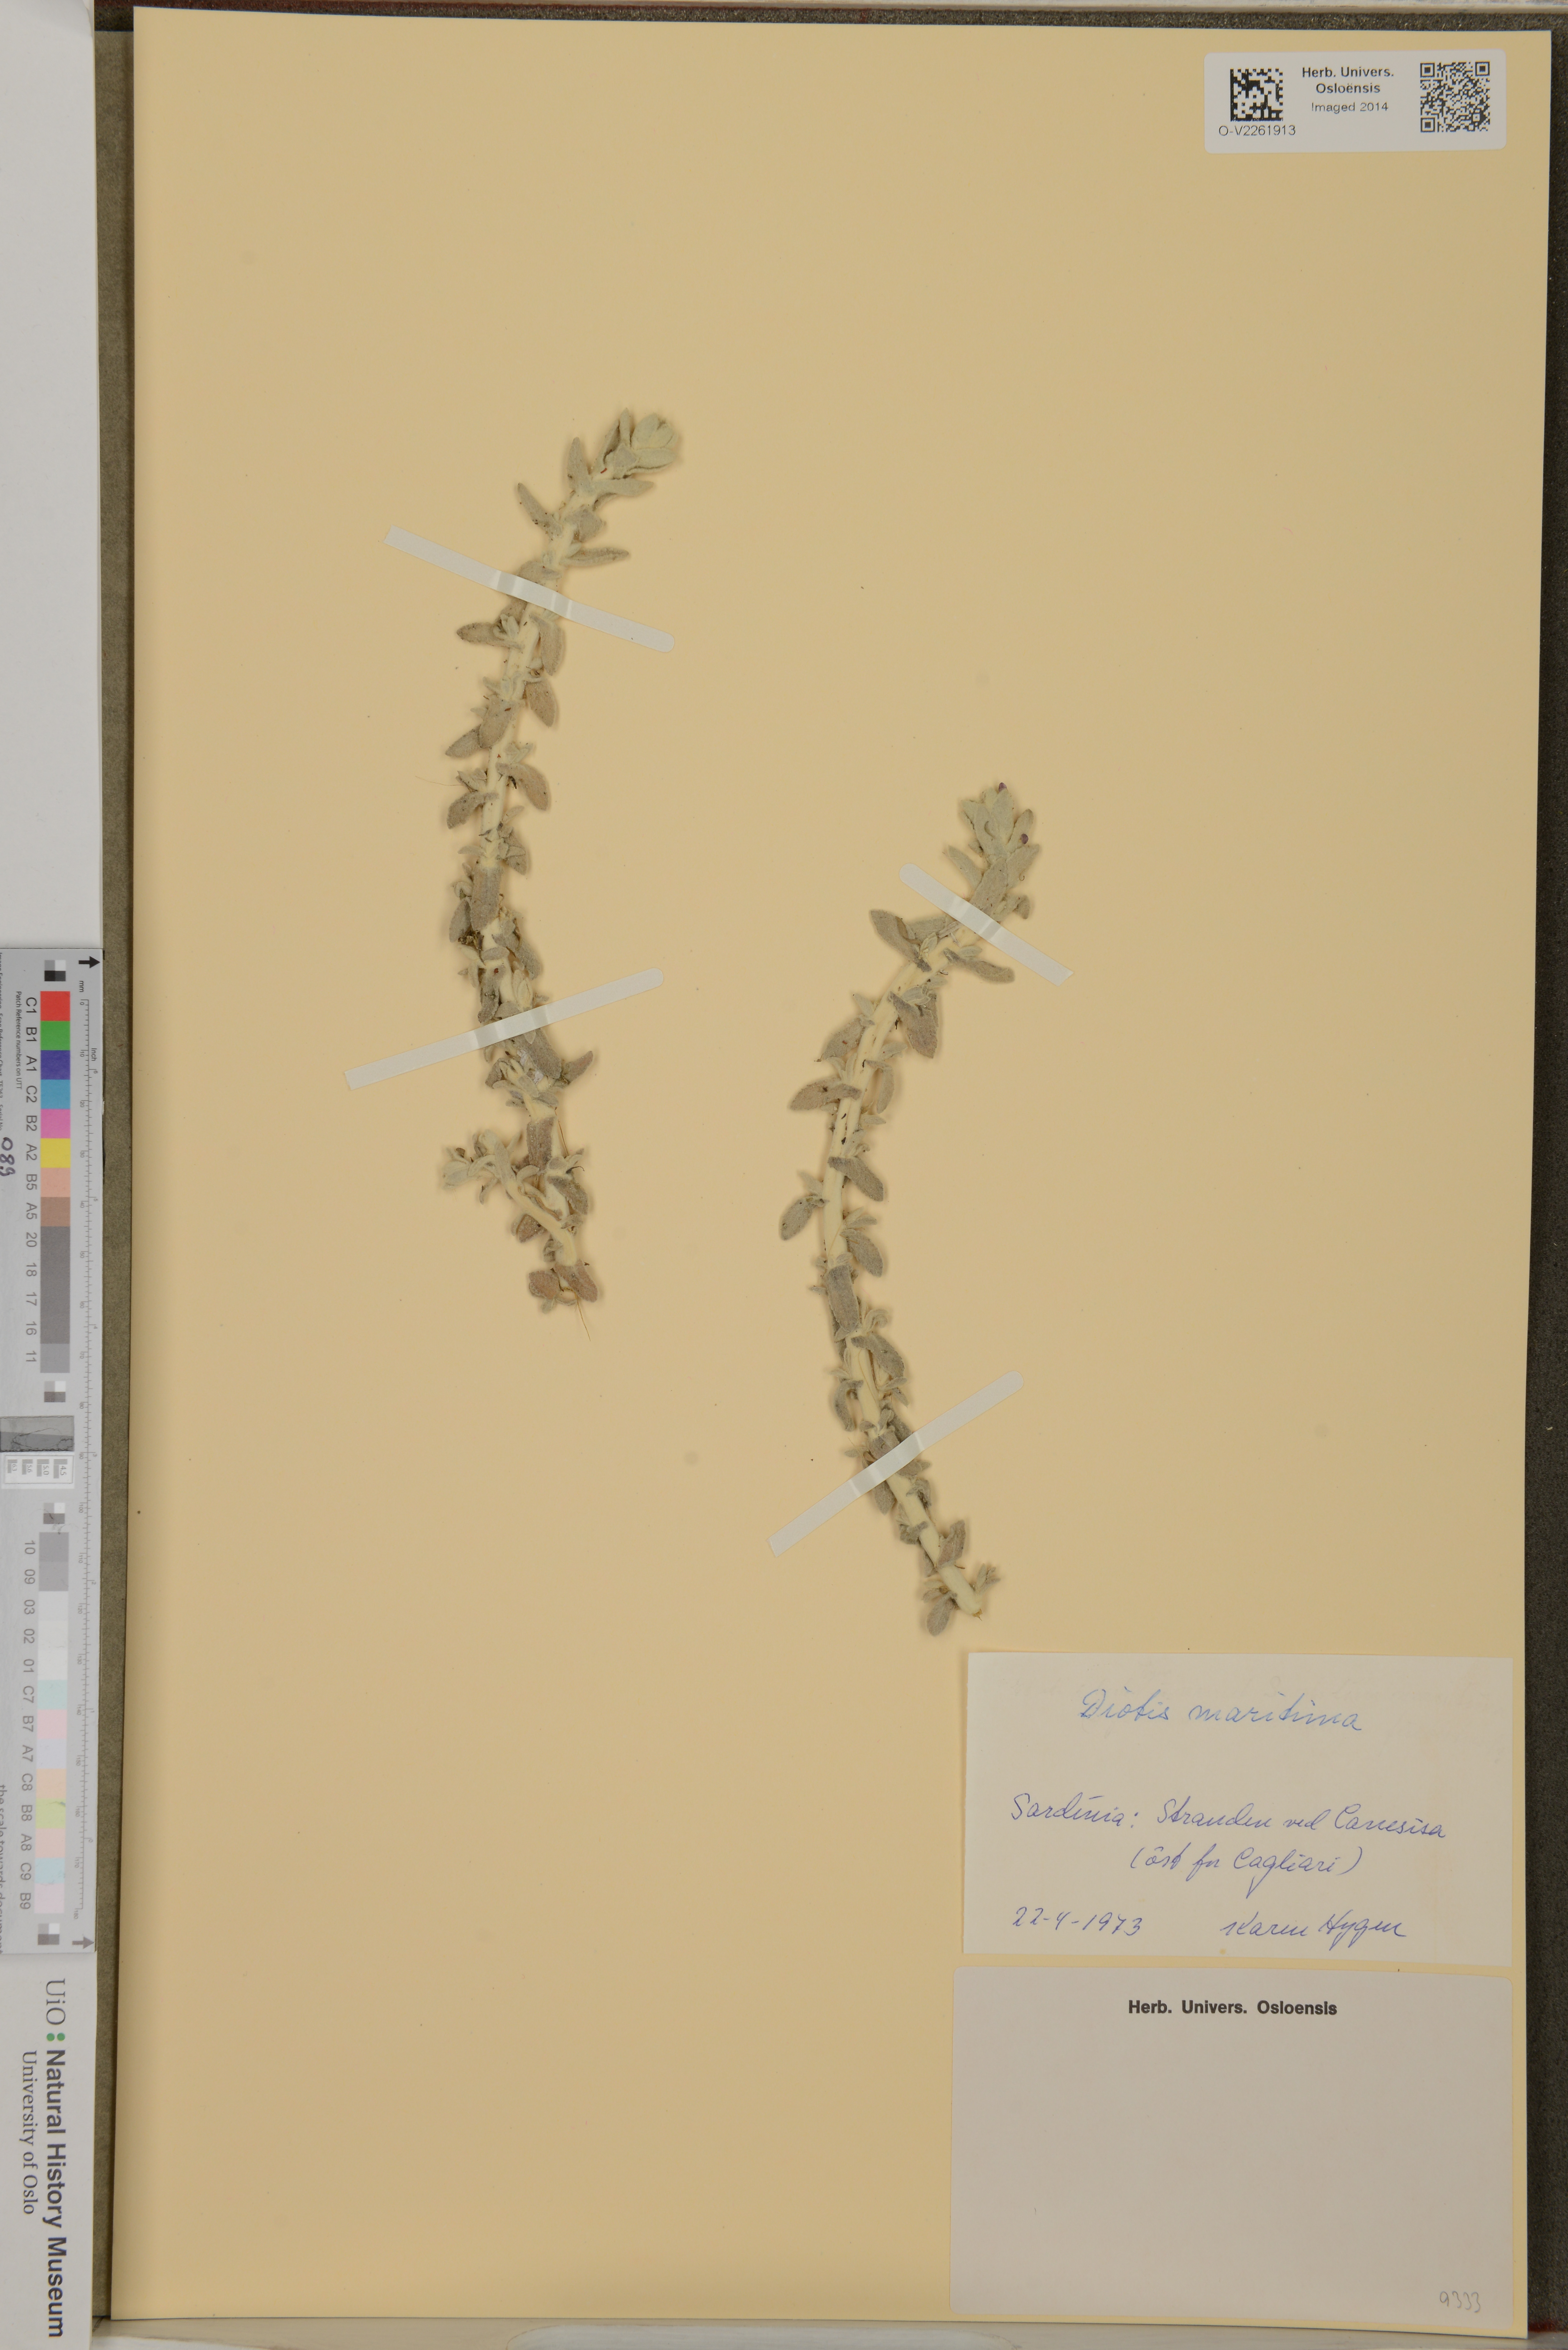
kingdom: Plantae
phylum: Tracheophyta
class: Magnoliopsida
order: Asterales
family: Asteraceae
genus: Achillea
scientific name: Achillea maritima
